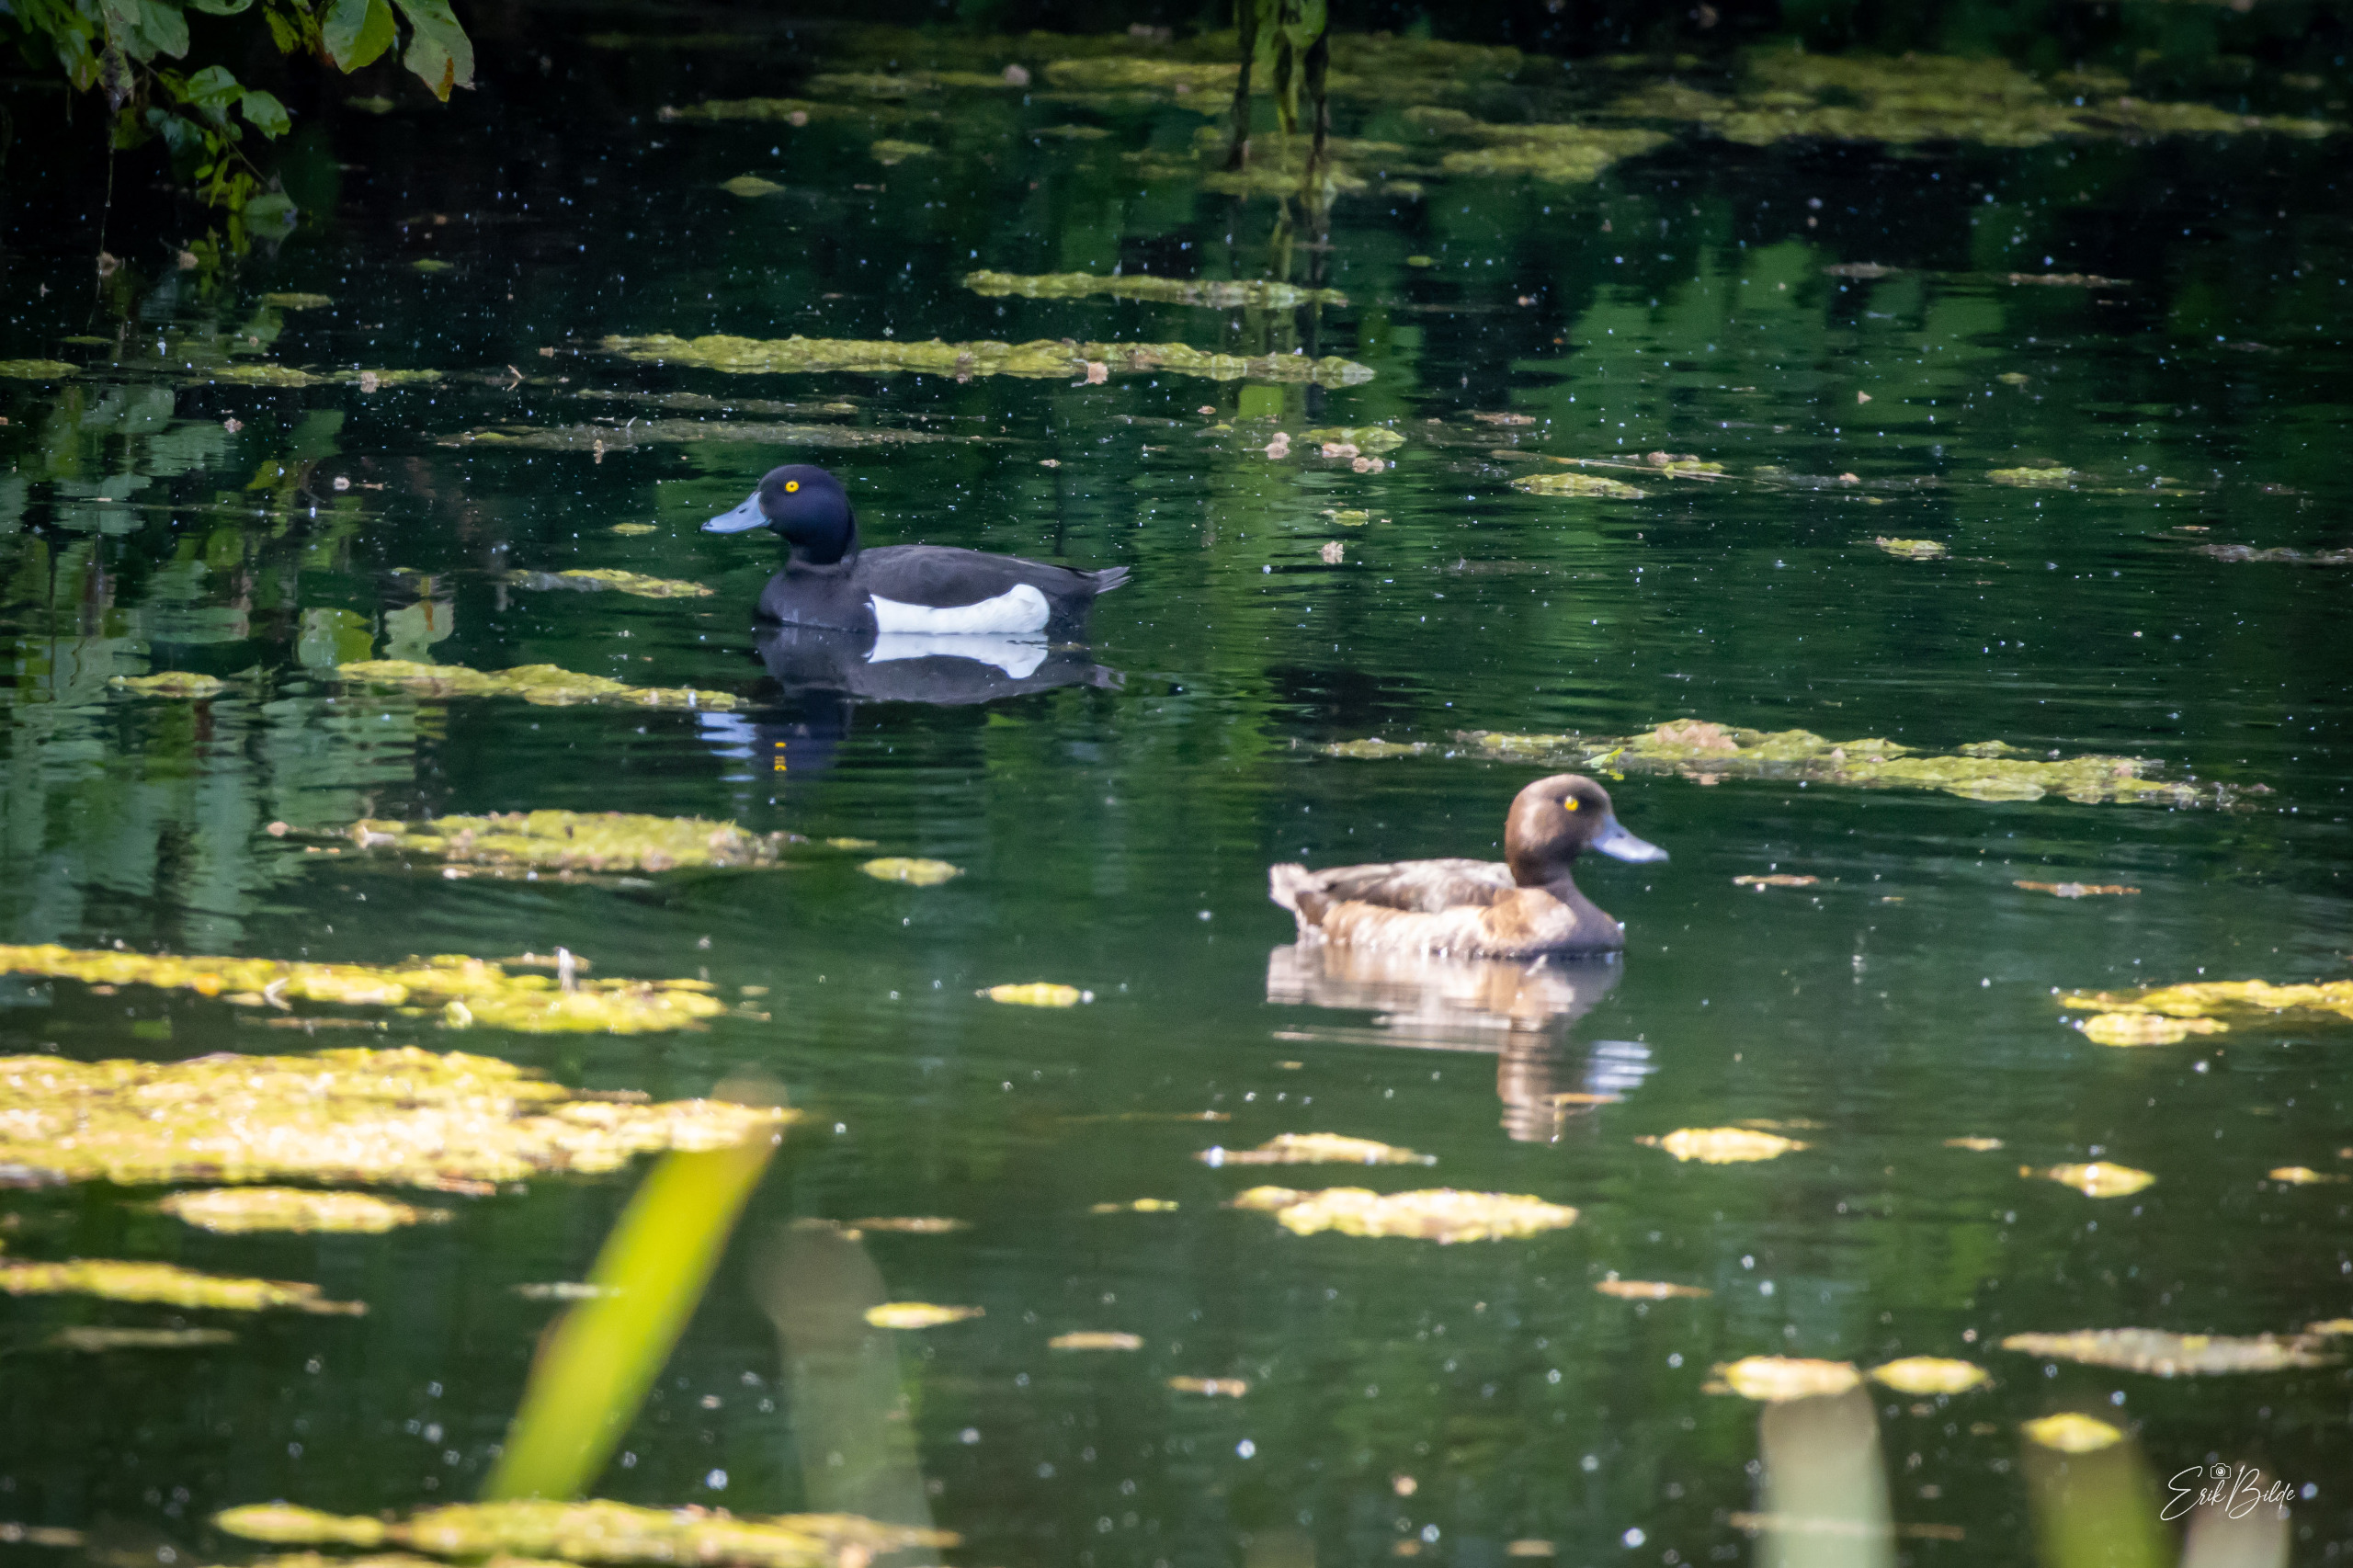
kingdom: Animalia
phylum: Chordata
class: Aves
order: Anseriformes
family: Anatidae
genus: Aythya
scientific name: Aythya fuligula
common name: Troldand
